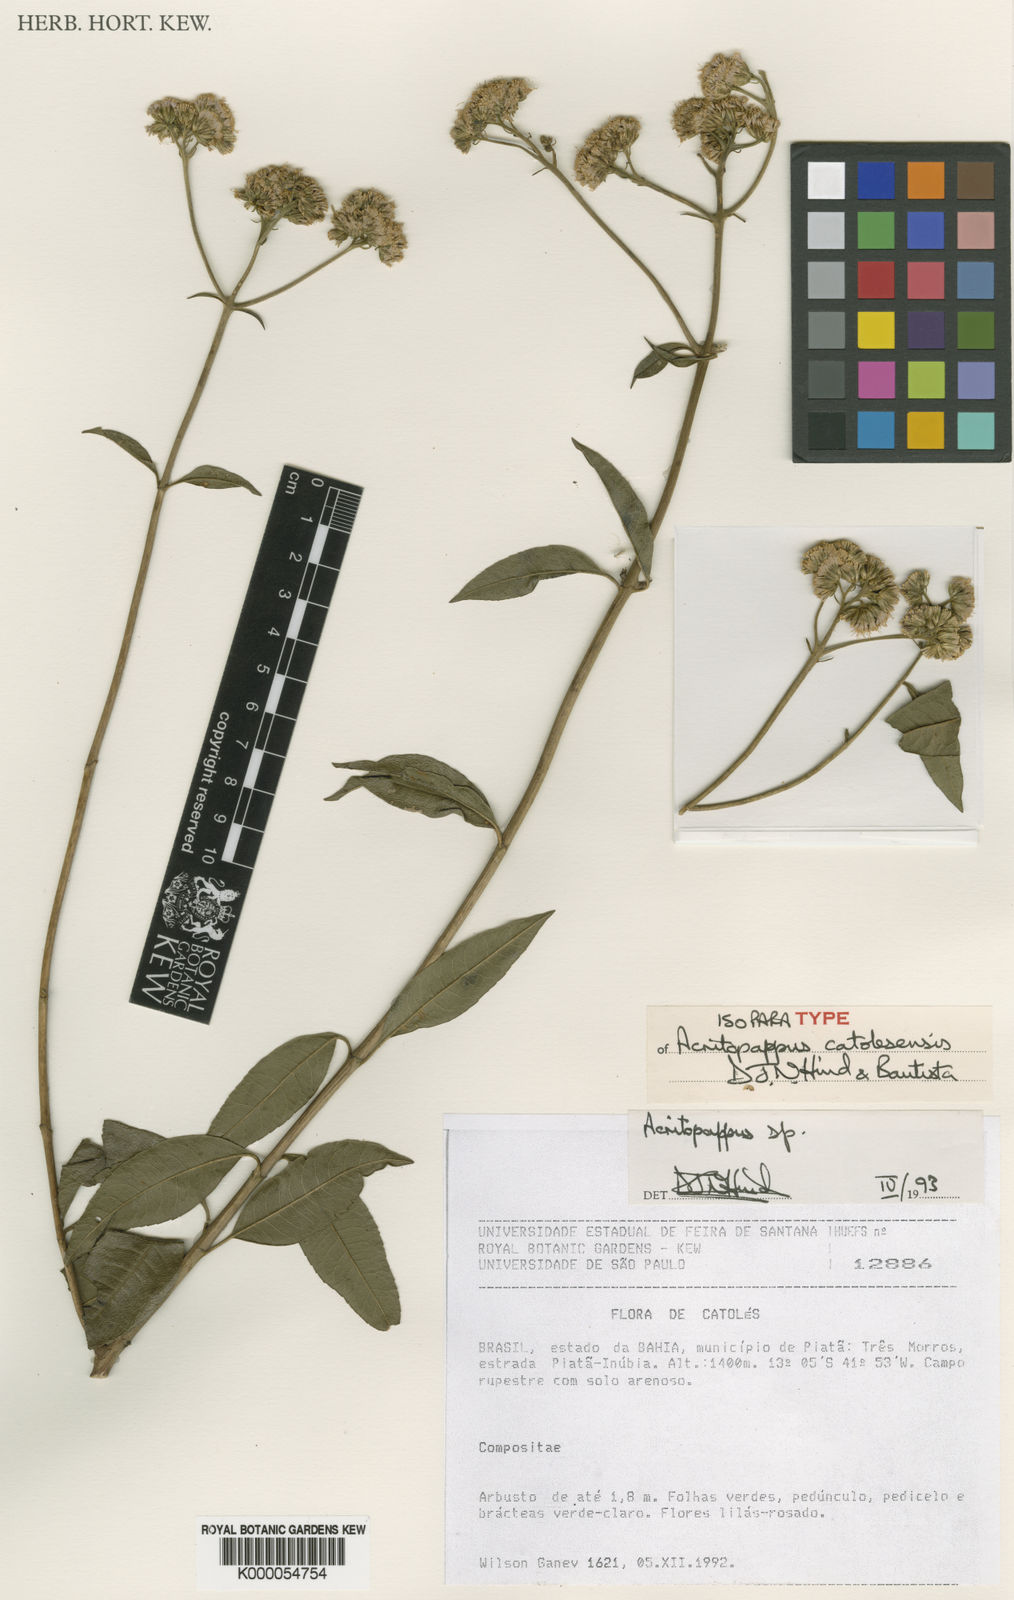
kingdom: Plantae
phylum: Tracheophyta
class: Magnoliopsida
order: Asterales
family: Asteraceae
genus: Acritopappus
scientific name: Acritopappus catolesensis
